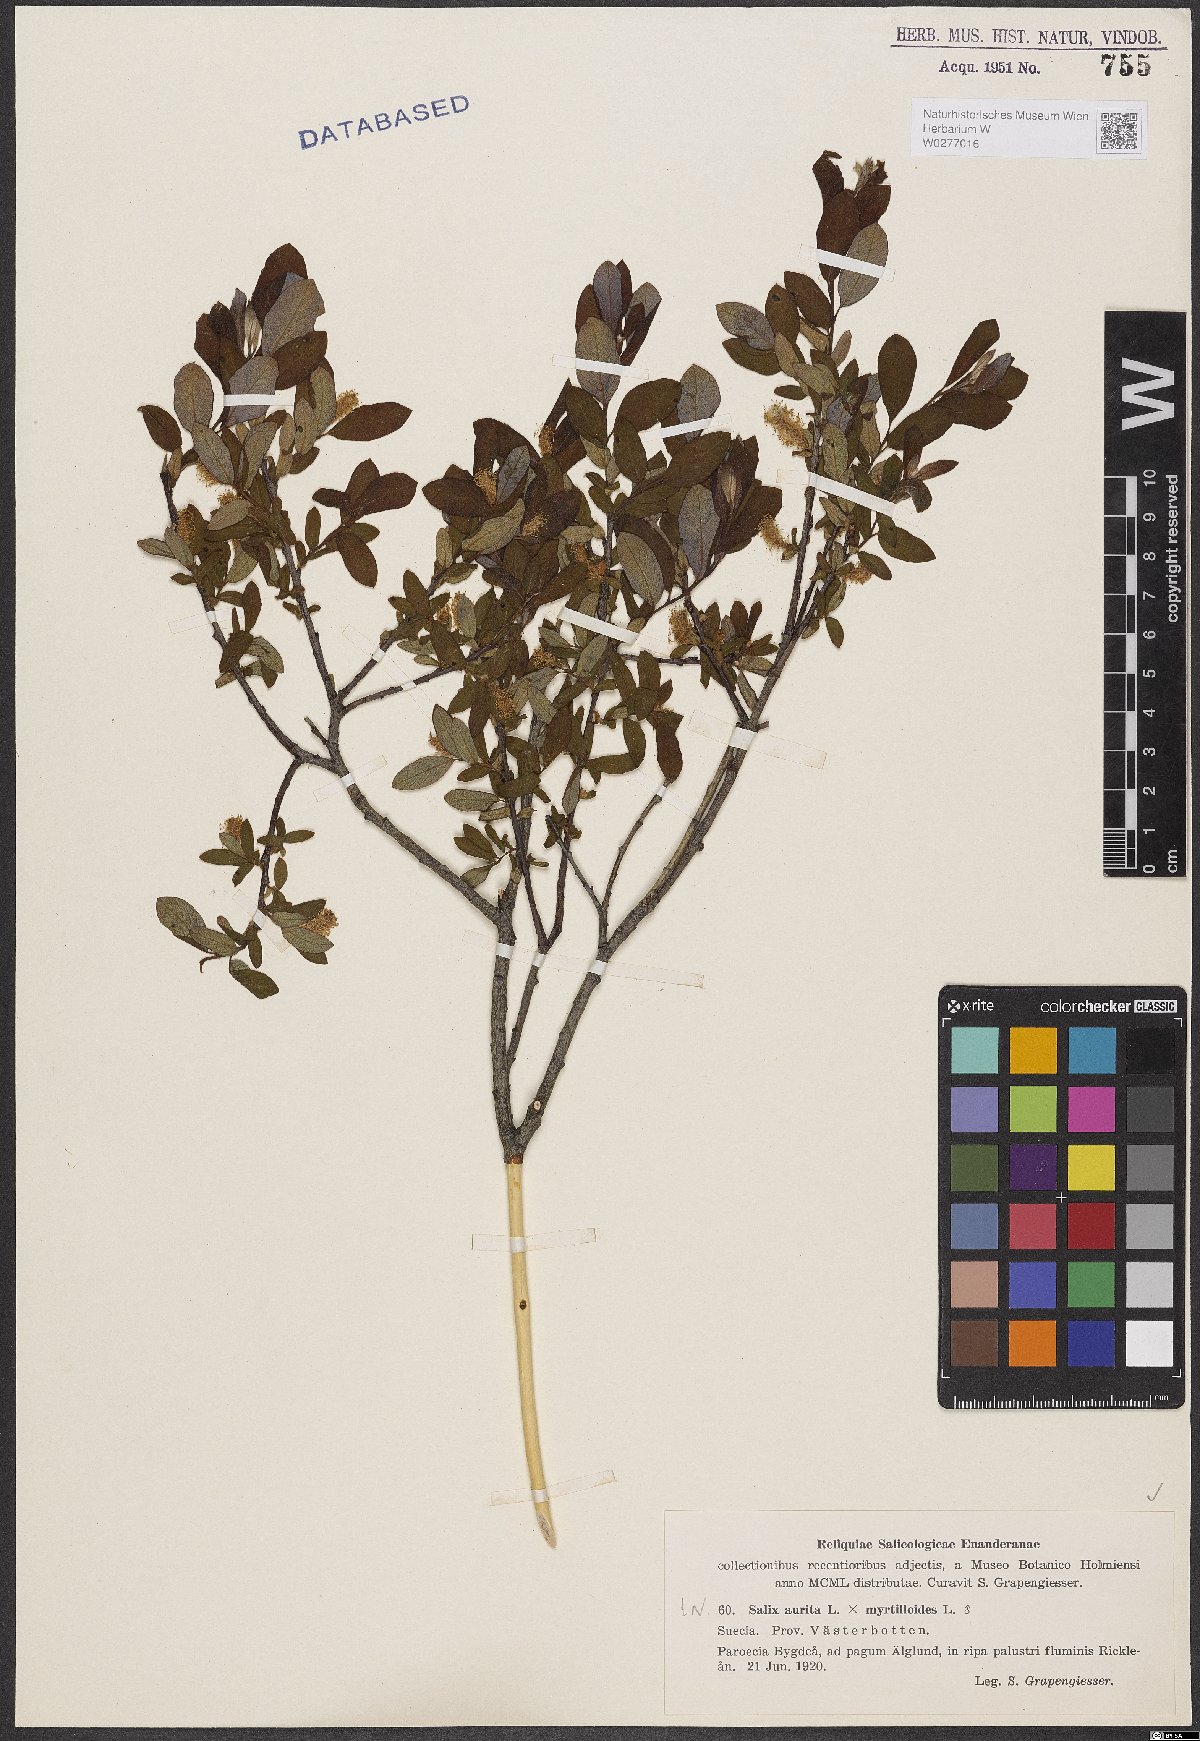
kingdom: Plantae
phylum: Tracheophyta
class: Magnoliopsida
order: Malpighiales
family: Salicaceae
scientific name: Salicaceae
